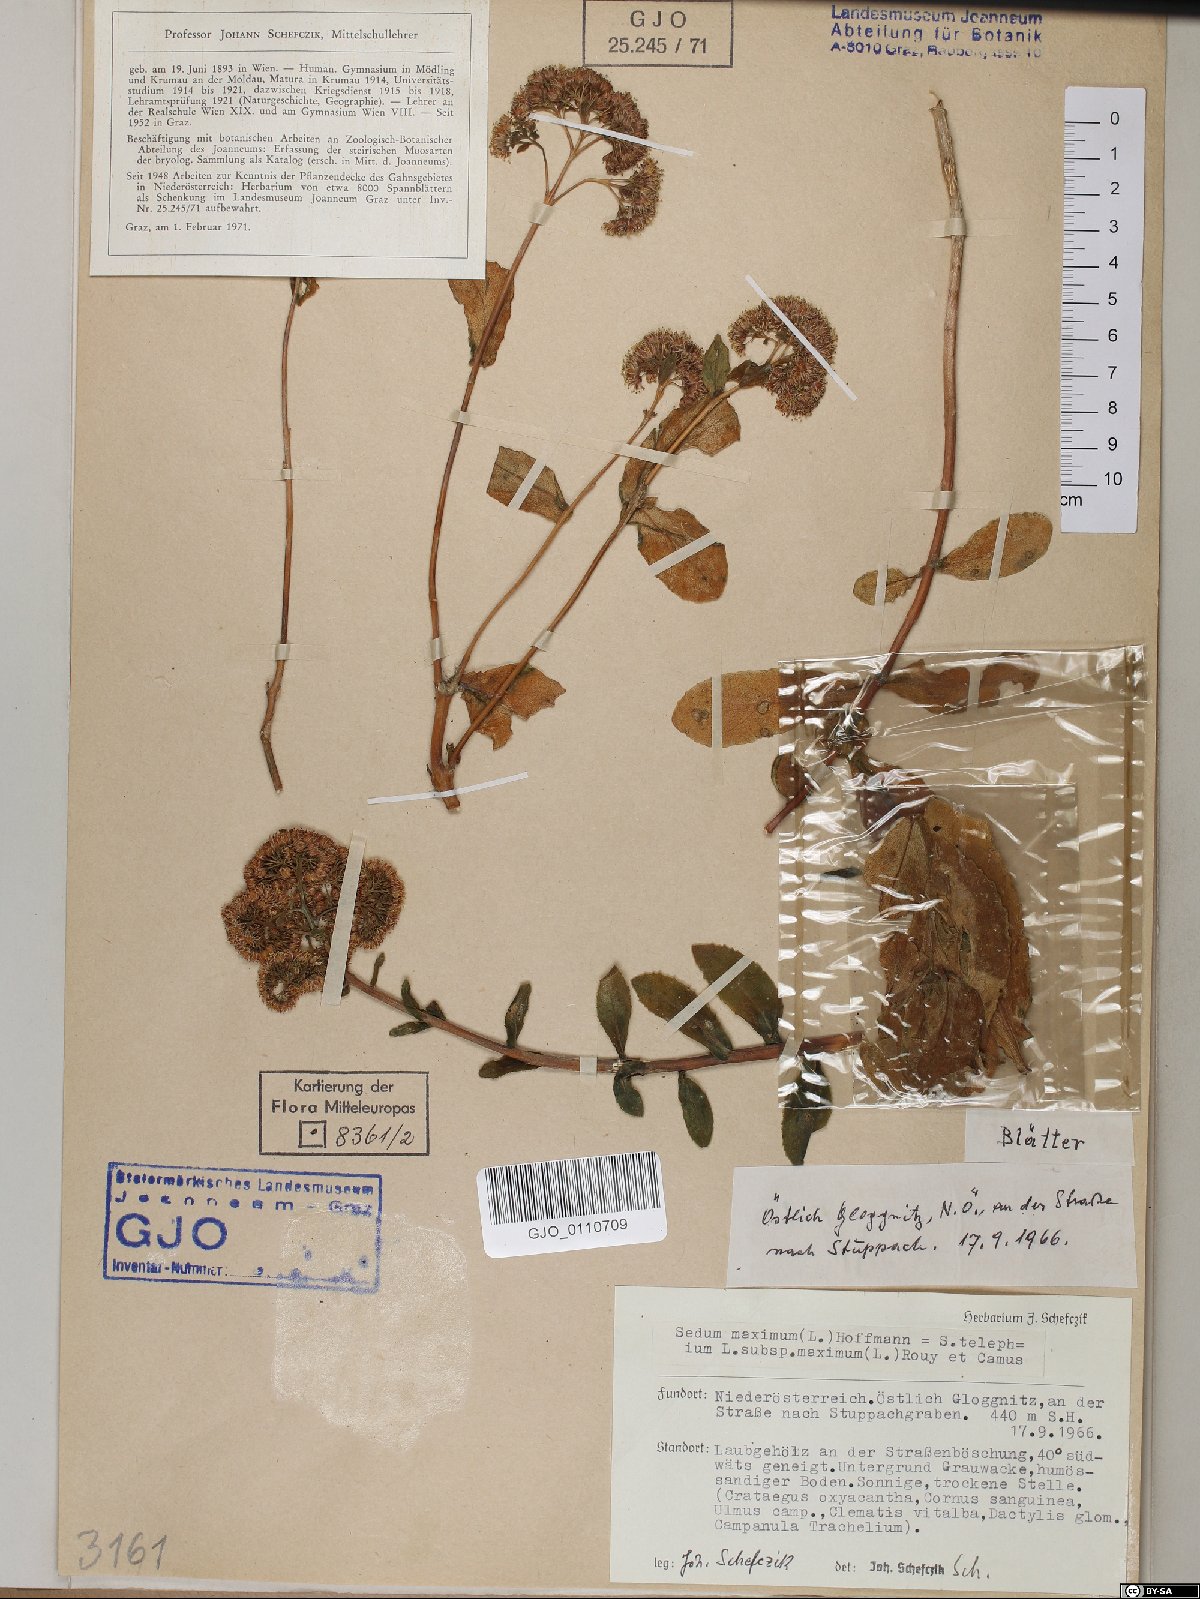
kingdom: Plantae
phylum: Tracheophyta
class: Magnoliopsida
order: Saxifragales
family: Crassulaceae
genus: Hylotelephium
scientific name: Hylotelephium maximum
